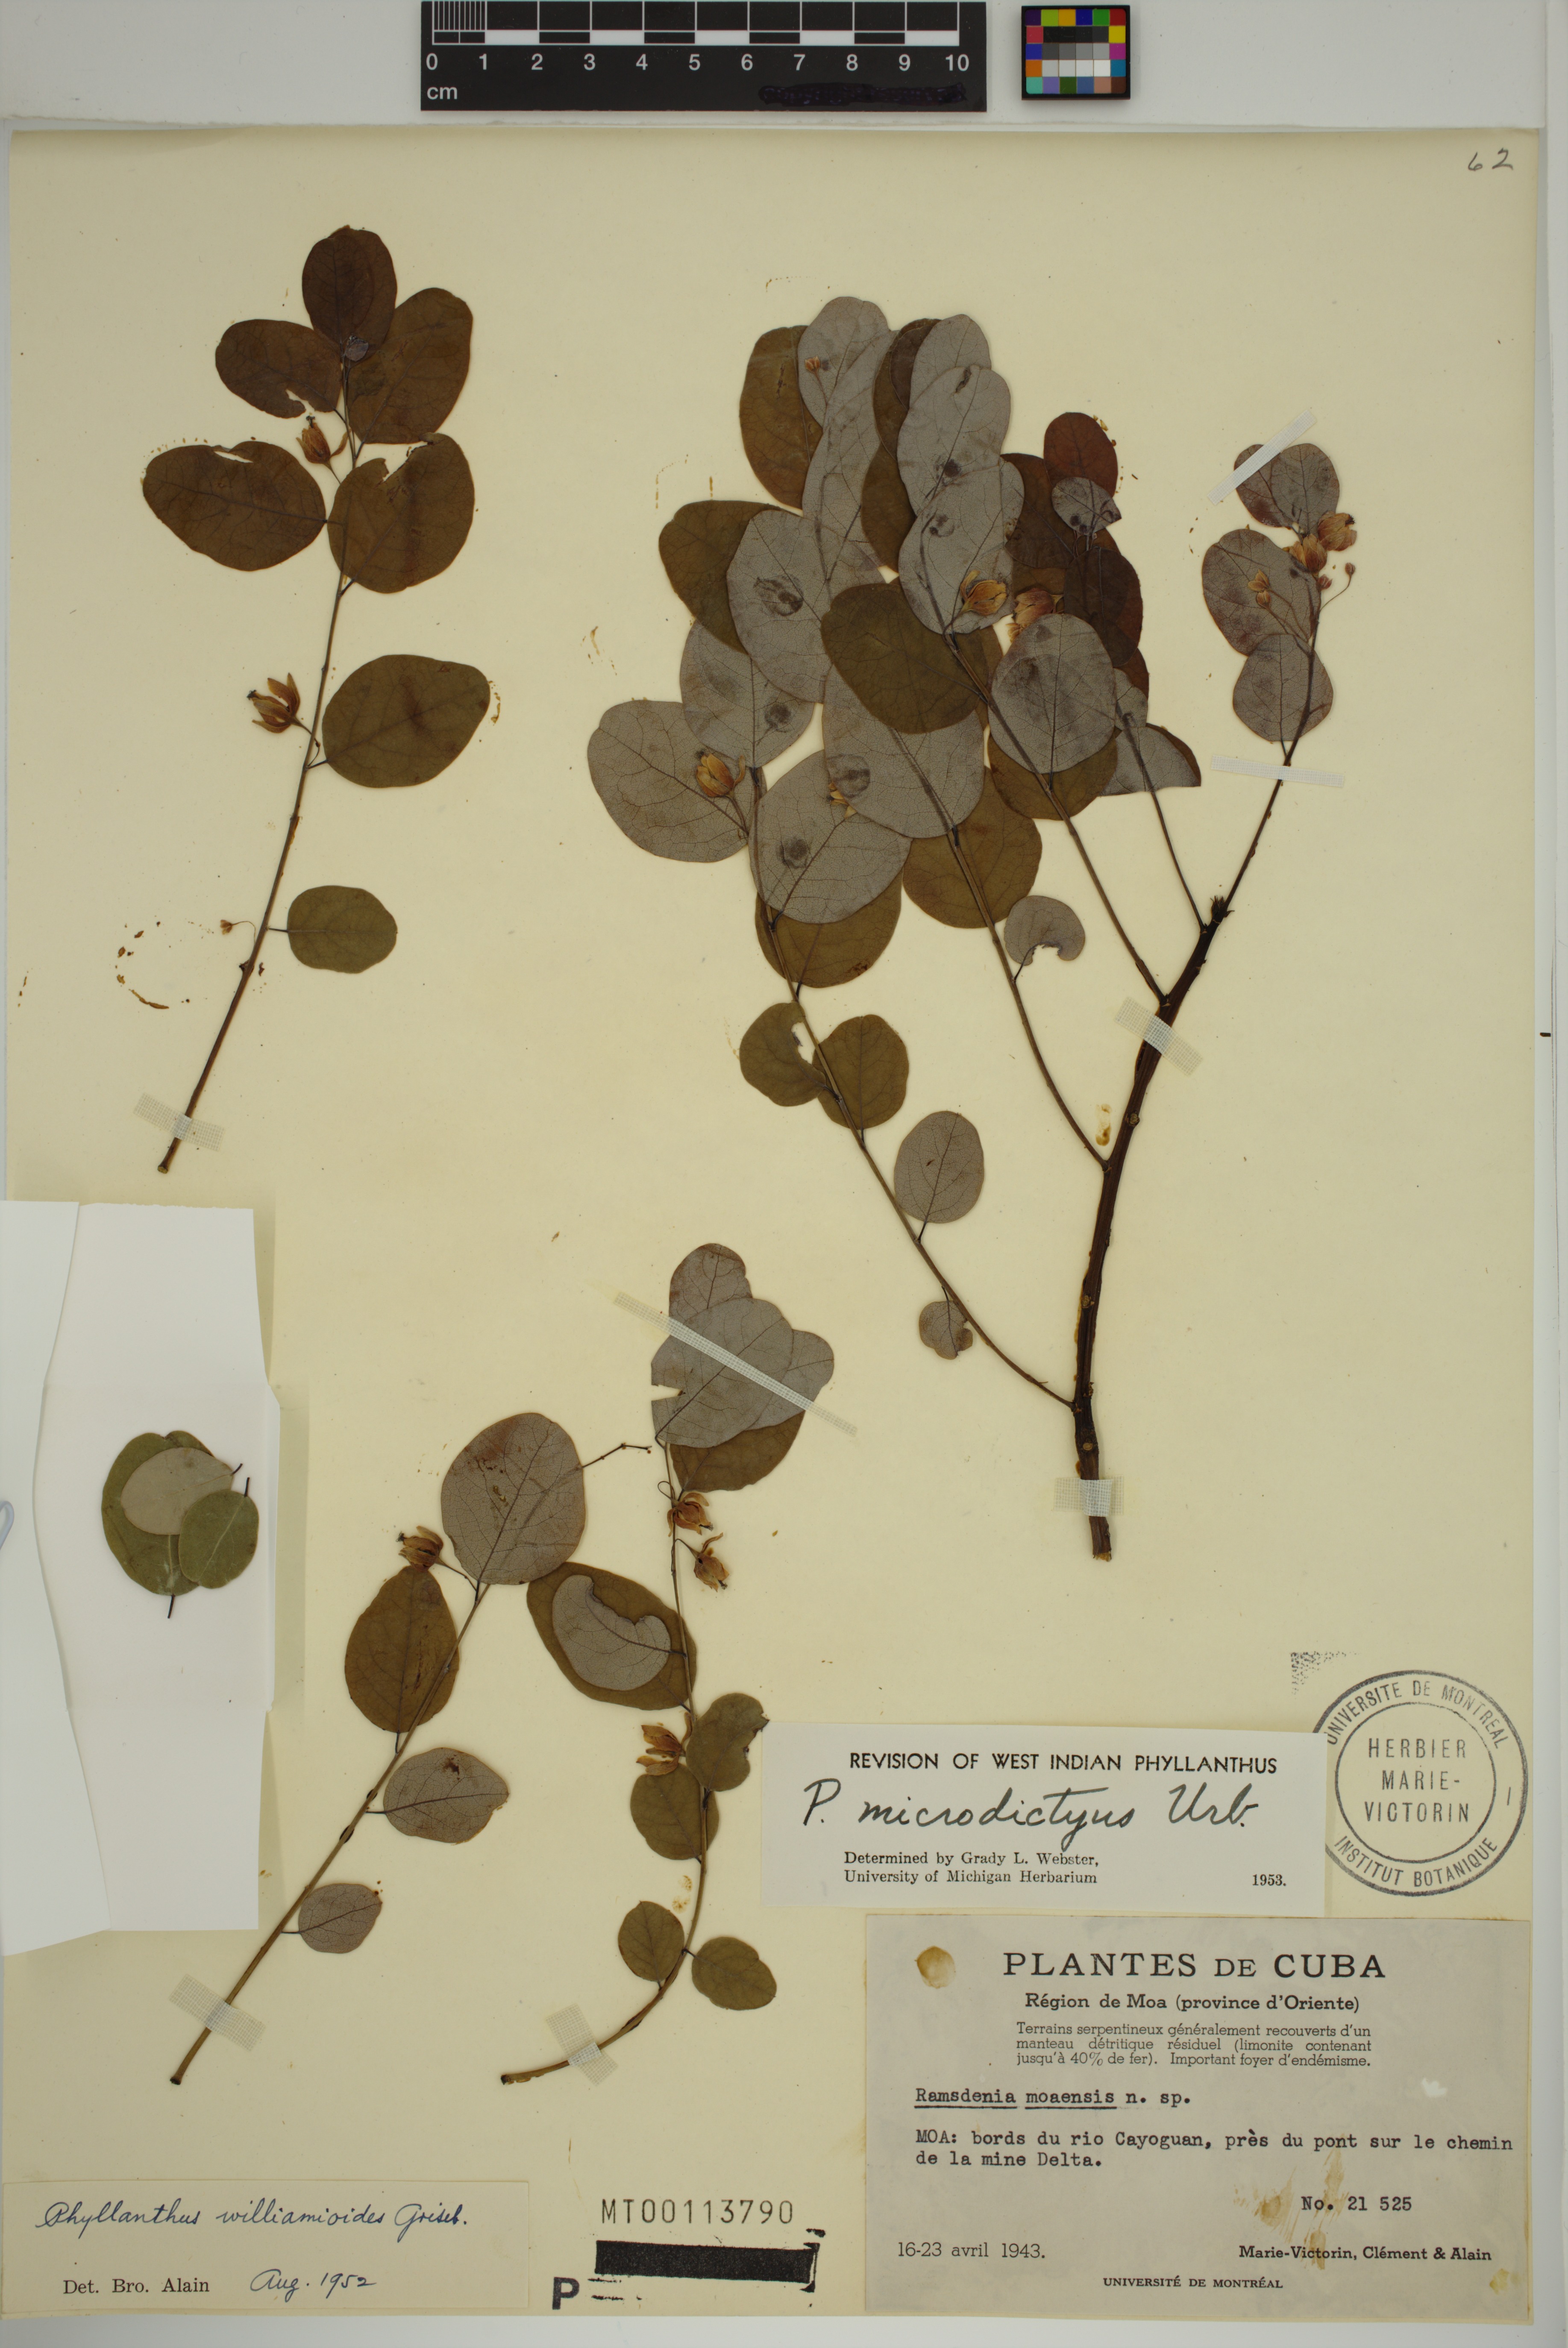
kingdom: Plantae
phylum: Tracheophyta
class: Magnoliopsida
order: Malpighiales
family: Phyllanthaceae
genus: Phyllanthus
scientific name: Phyllanthus microdictyus
